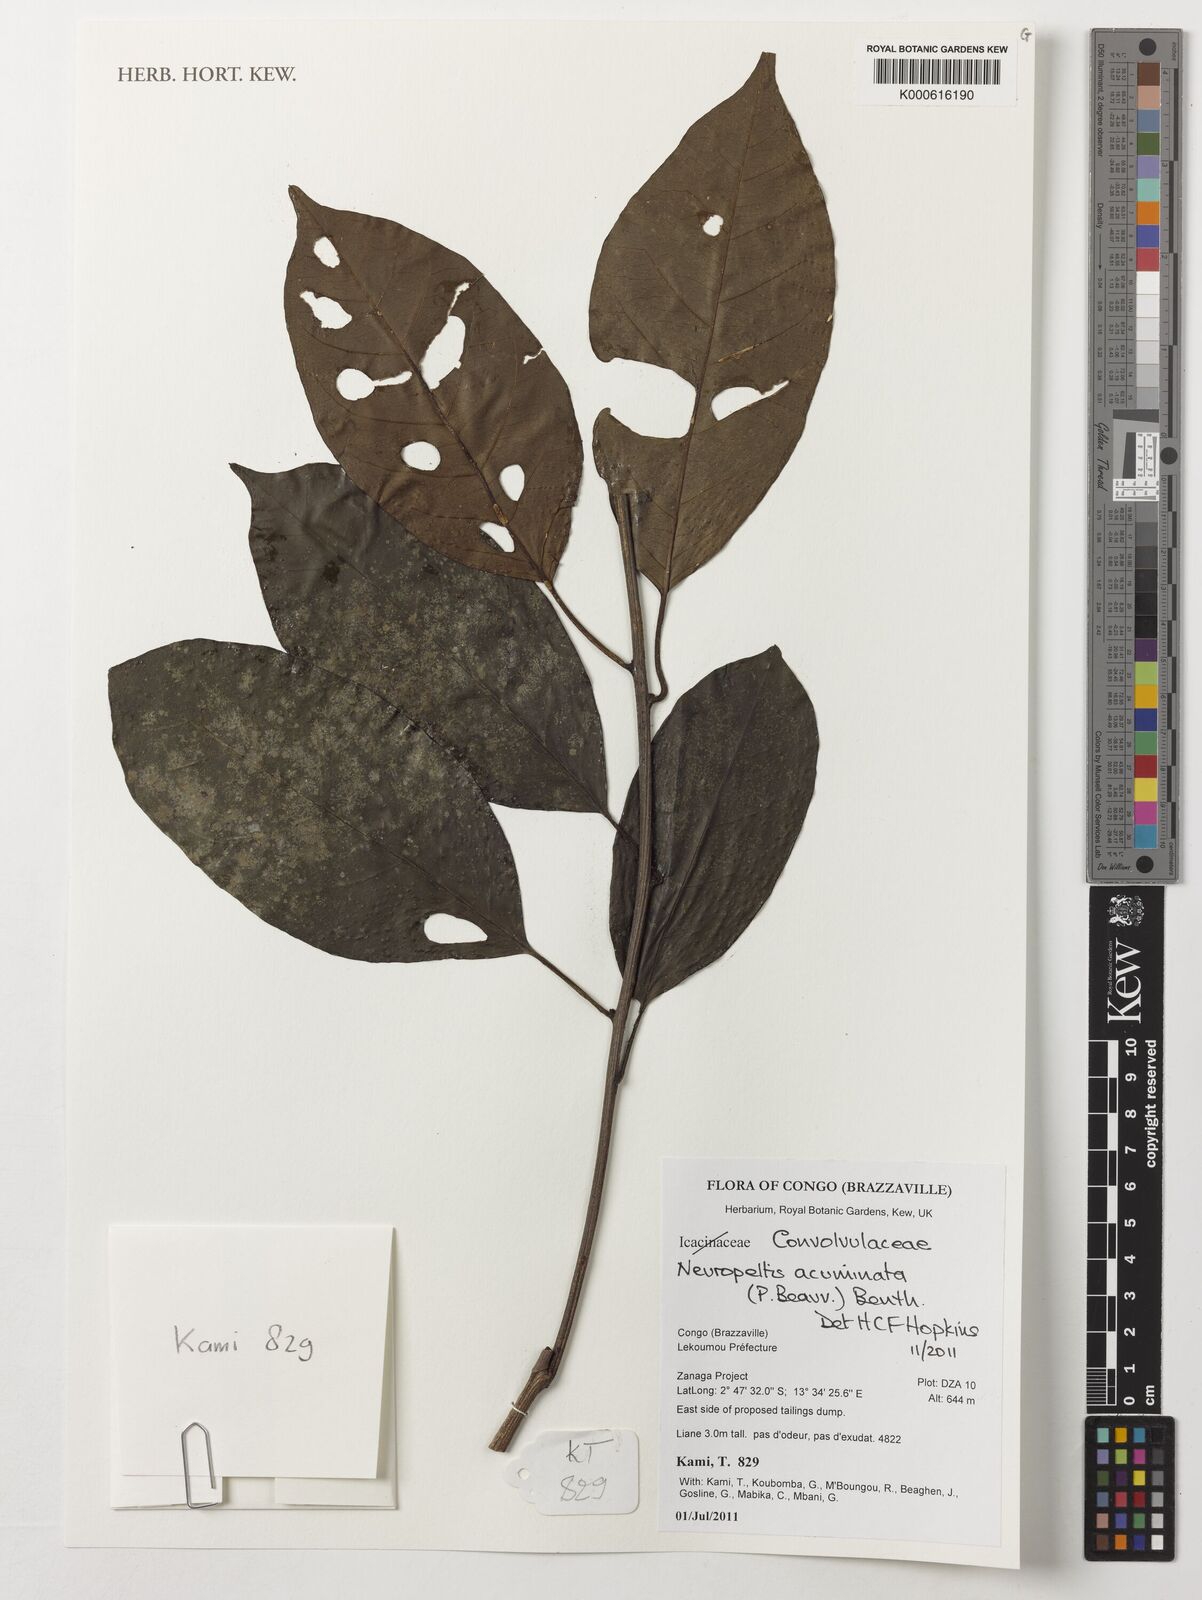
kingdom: Plantae
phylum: Tracheophyta
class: Magnoliopsida
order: Solanales
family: Convolvulaceae
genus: Neuropeltis
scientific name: Neuropeltis acuminata
